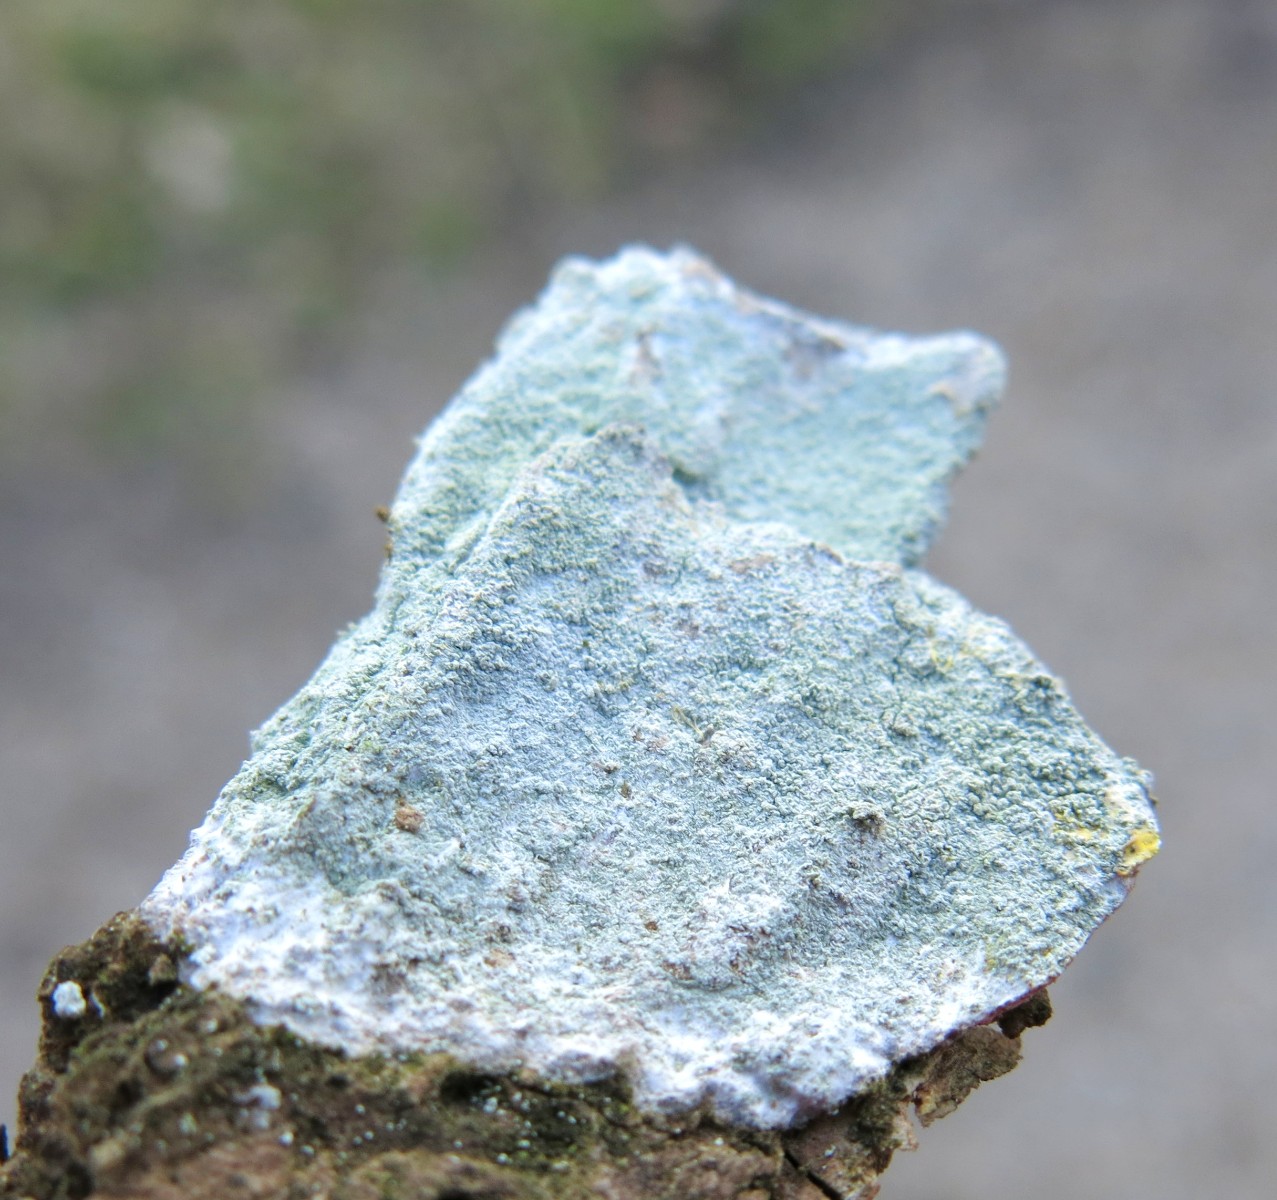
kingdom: Fungi
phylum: Ascomycota
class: Lecanoromycetes
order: Ostropales
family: Phlyctidaceae
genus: Phlyctis
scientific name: Phlyctis argena
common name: almindelig sølvlav
